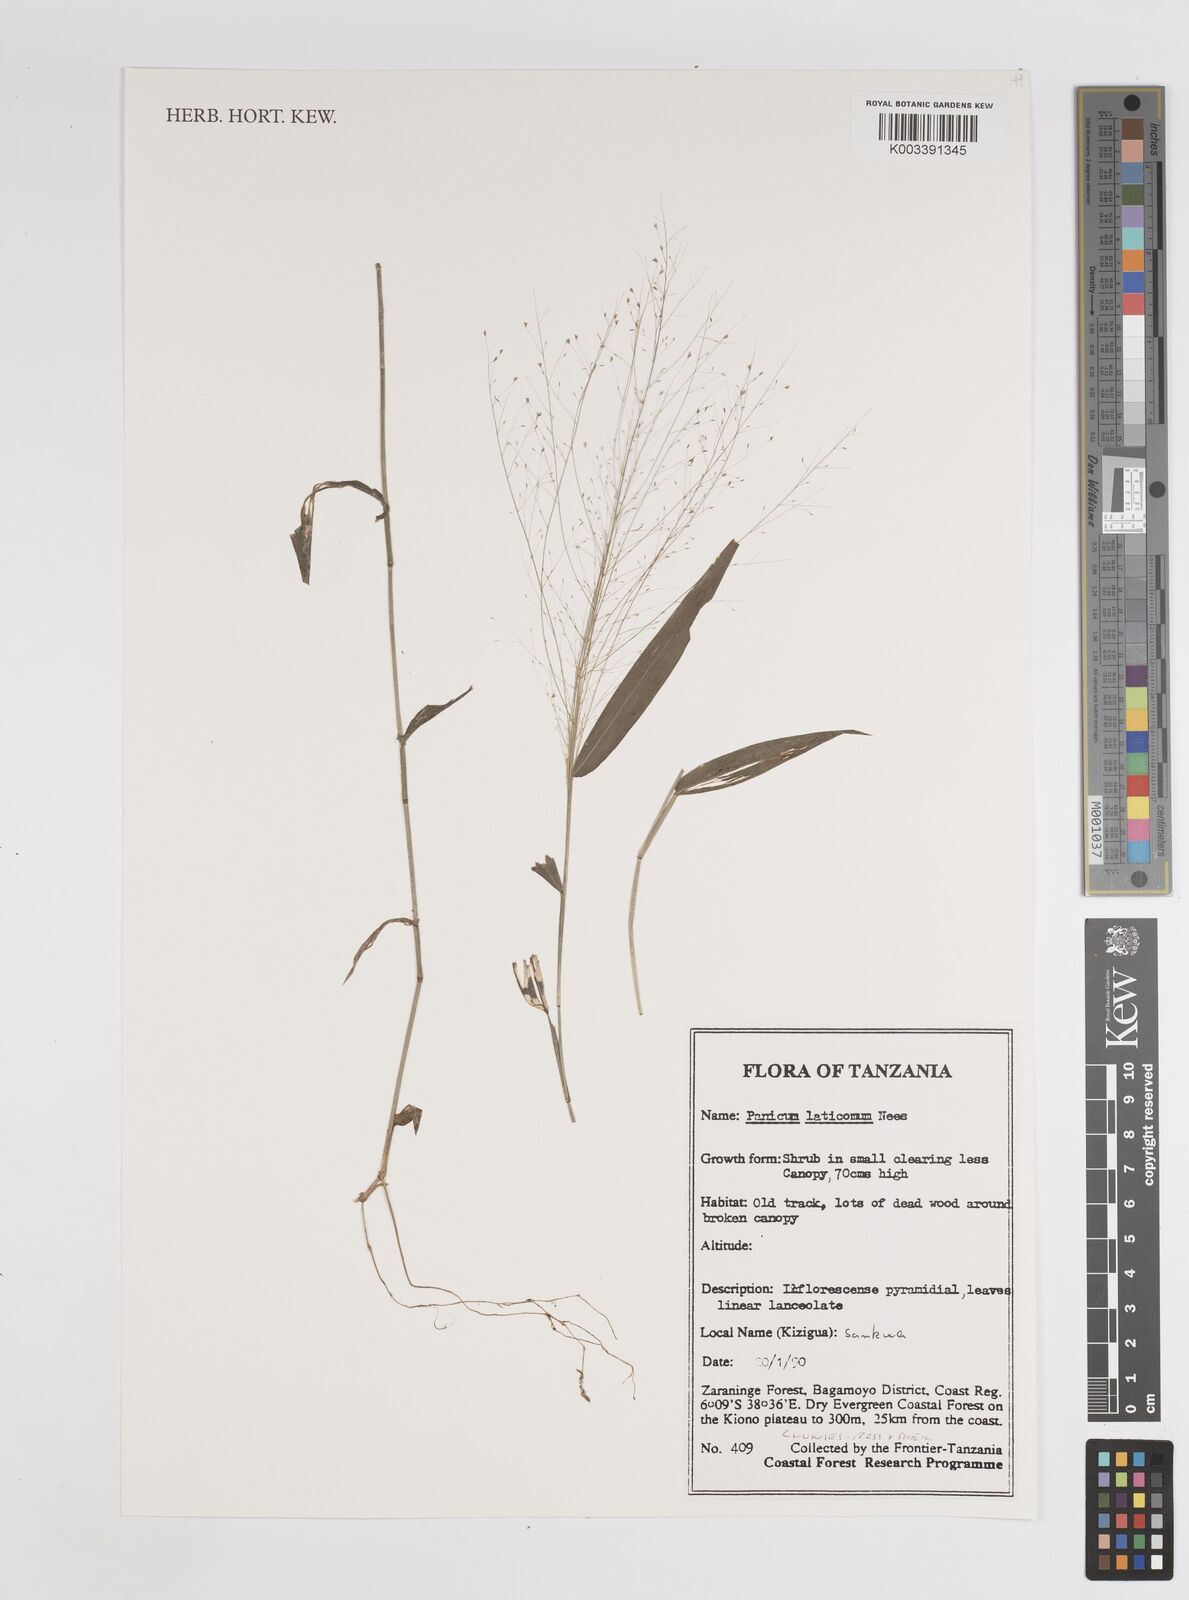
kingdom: Plantae
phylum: Tracheophyta
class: Liliopsida
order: Poales
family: Poaceae
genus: Panicum
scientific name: Panicum laticomum
